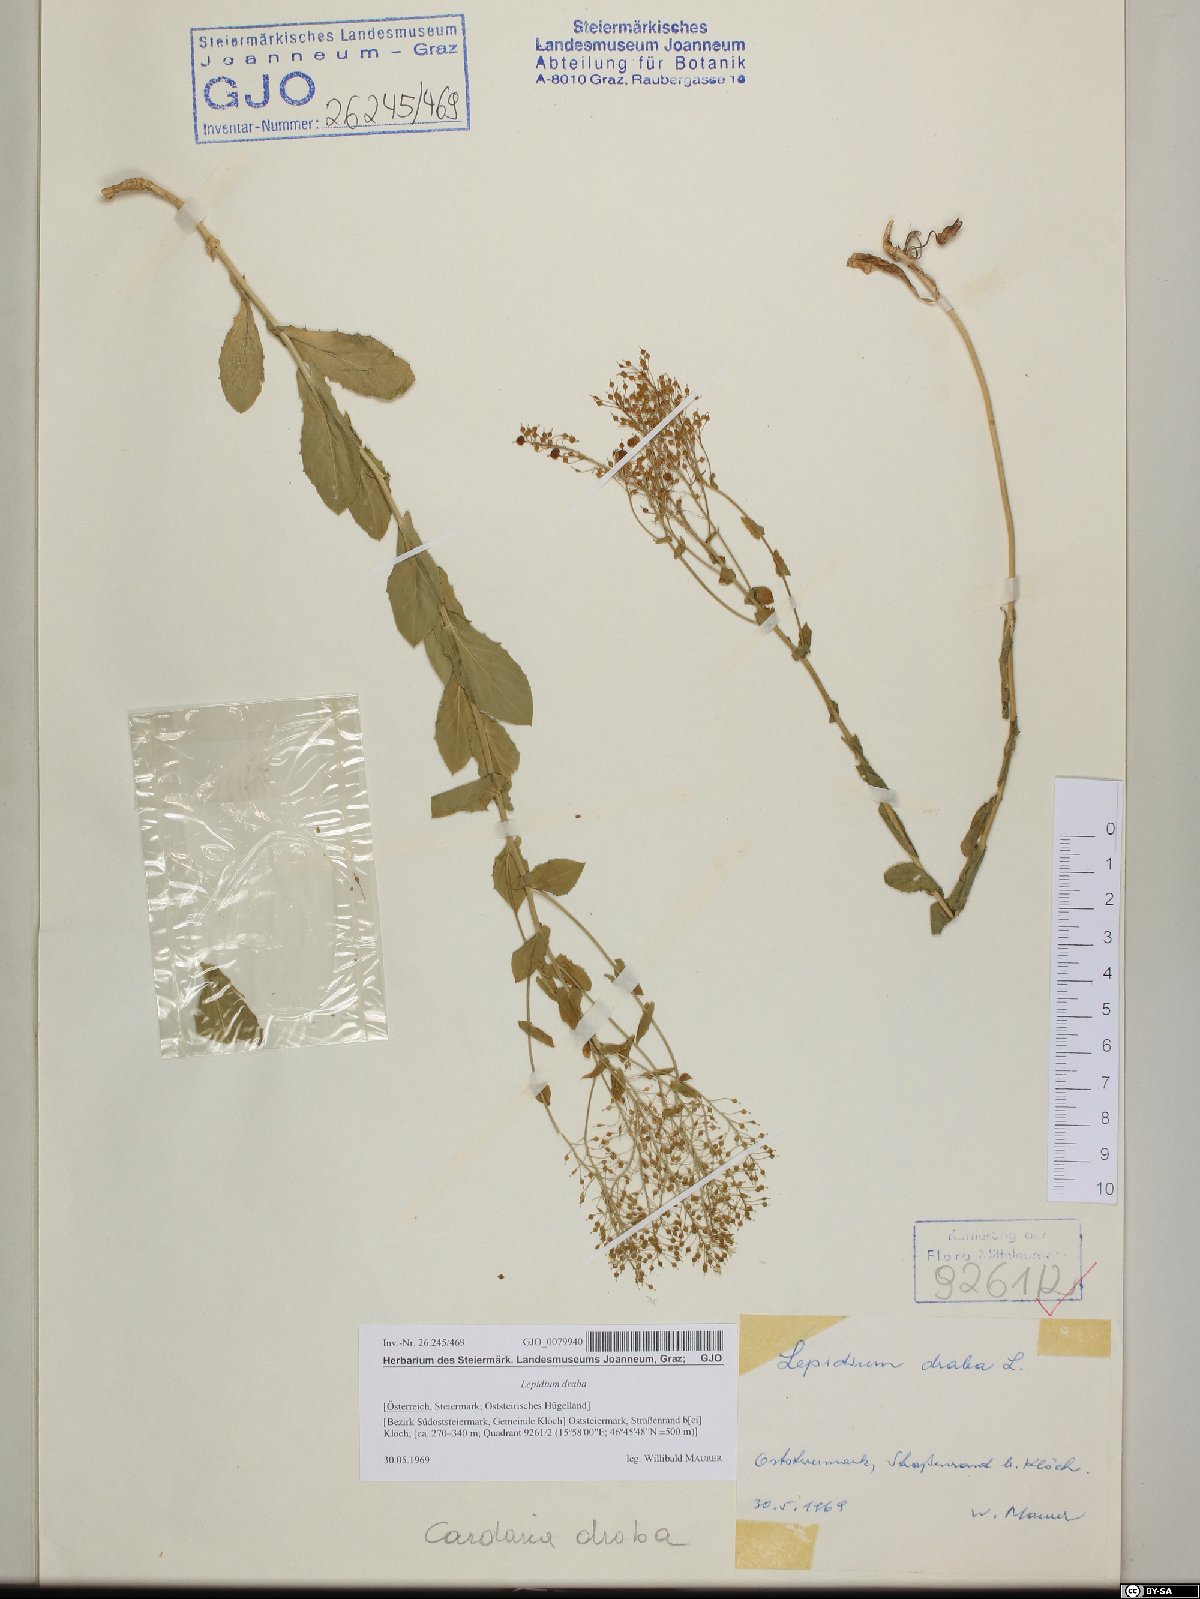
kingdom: Plantae
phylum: Tracheophyta
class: Magnoliopsida
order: Brassicales
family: Brassicaceae
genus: Lepidium
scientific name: Lepidium draba
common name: Hoary cress
